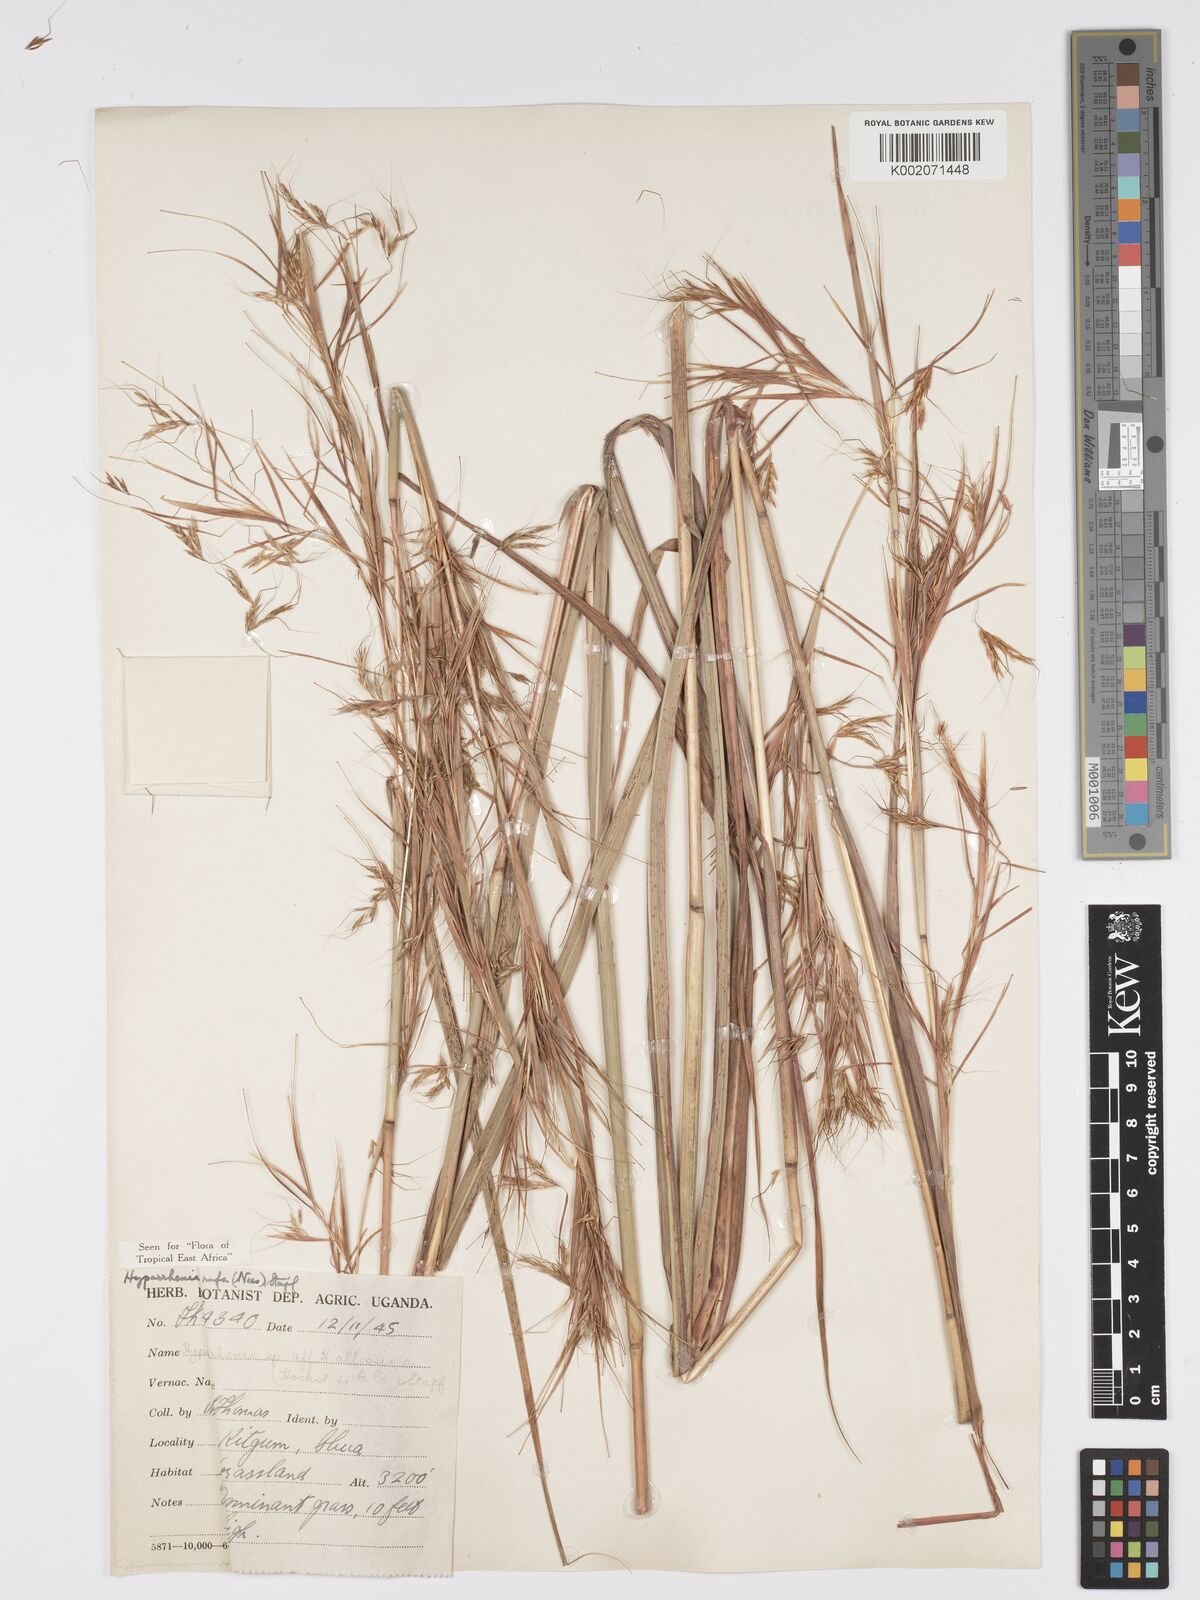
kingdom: Plantae
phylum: Tracheophyta
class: Liliopsida
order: Poales
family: Poaceae
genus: Hyparrhenia
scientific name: Hyparrhenia rufa
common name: Jaraguagrass
